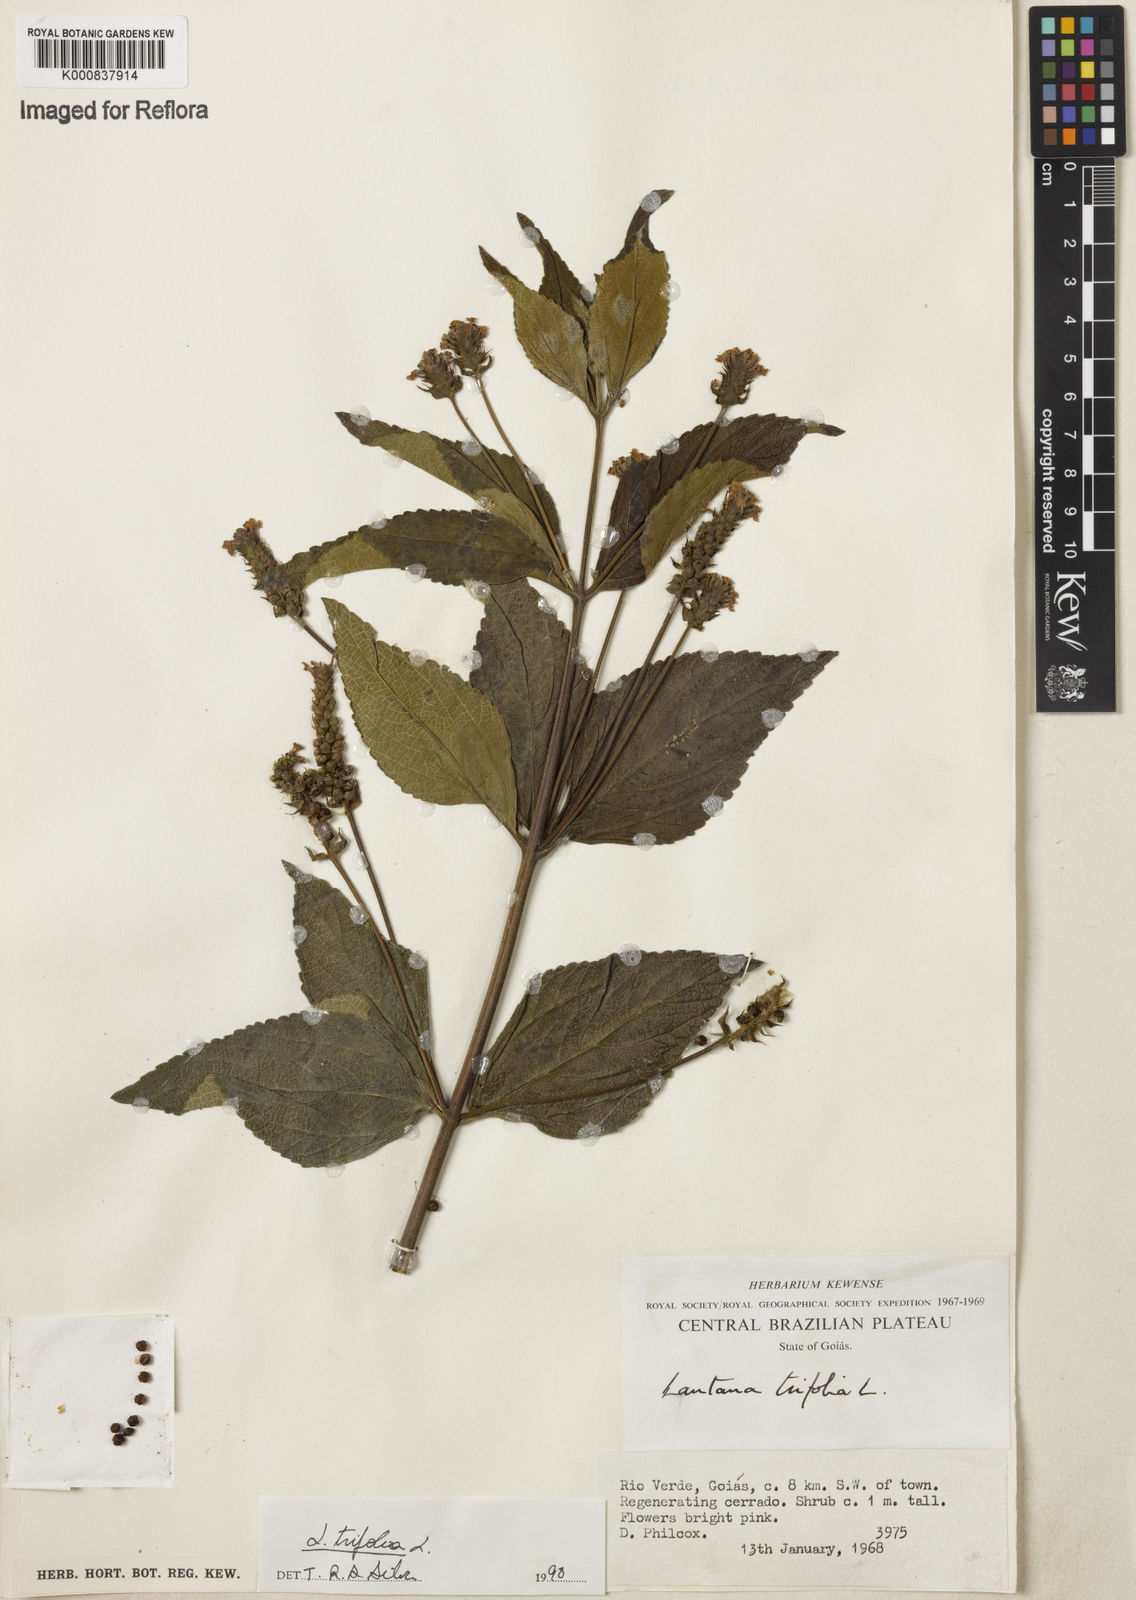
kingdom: Plantae
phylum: Tracheophyta
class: Magnoliopsida
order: Lamiales
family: Verbenaceae
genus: Lantana
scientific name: Lantana trifolia
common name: Sweet-sage
